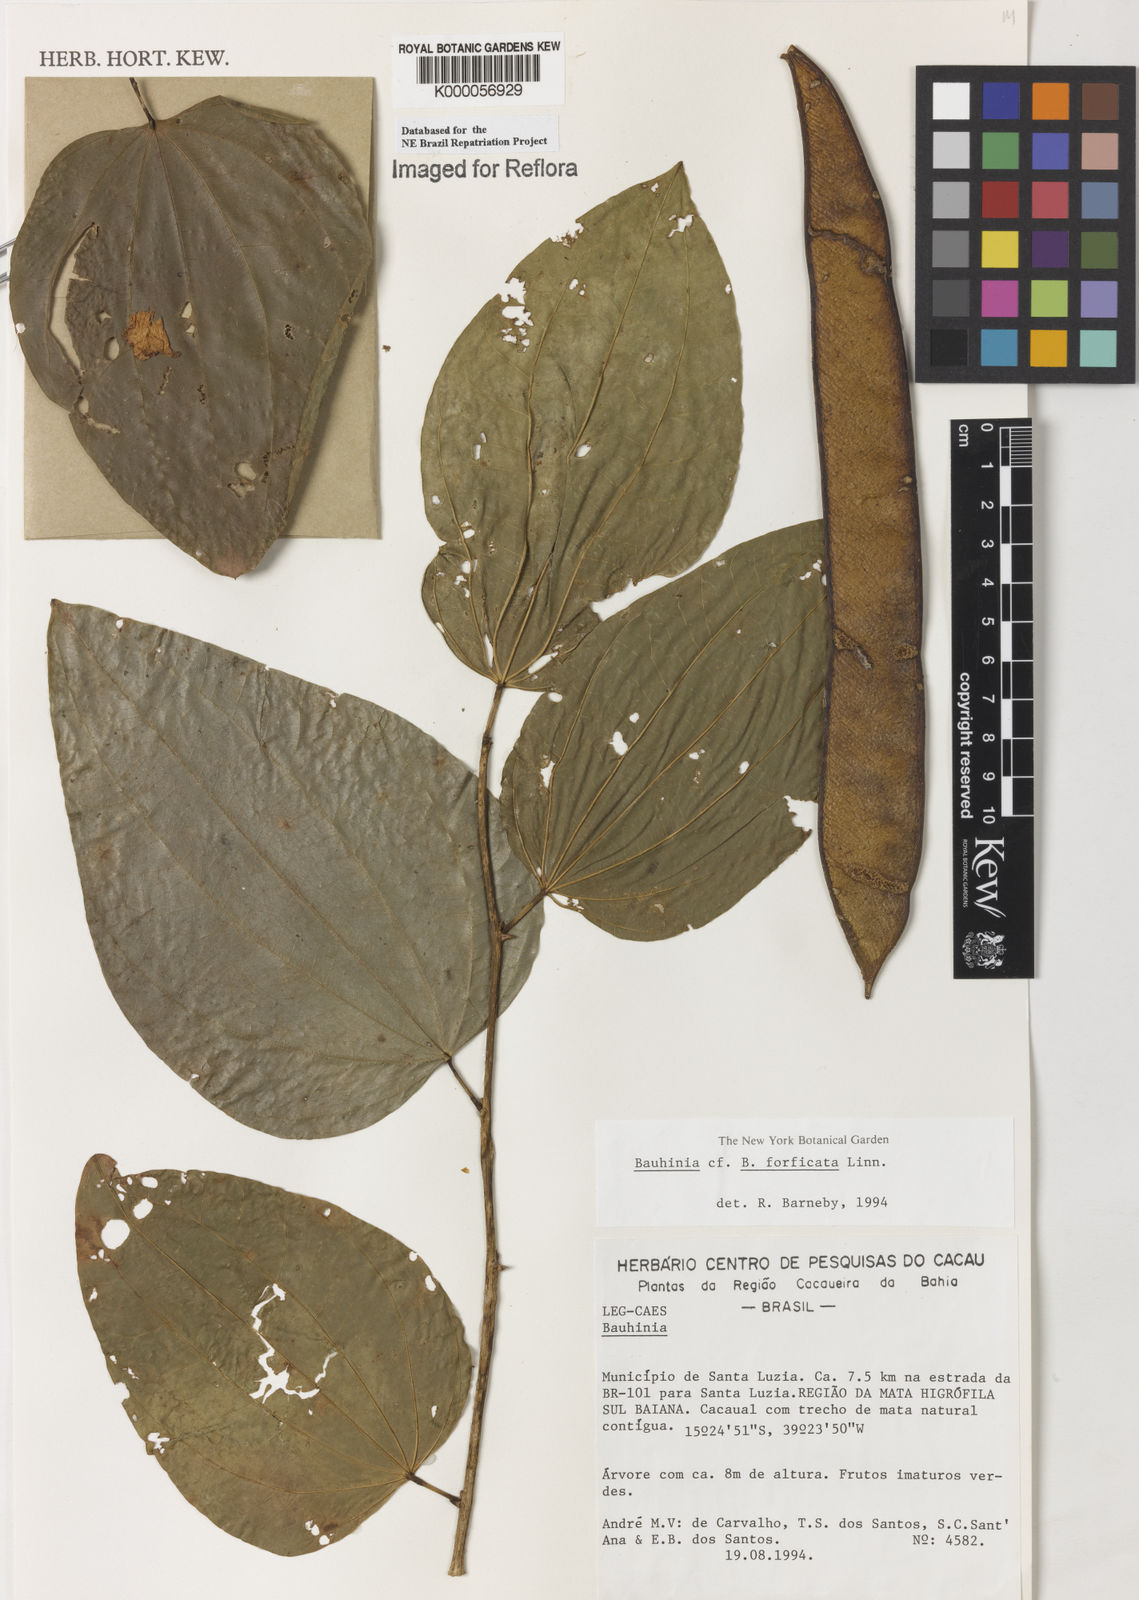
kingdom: Plantae
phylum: Tracheophyta
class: Magnoliopsida
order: Fabales
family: Fabaceae
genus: Bauhinia
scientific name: Bauhinia
